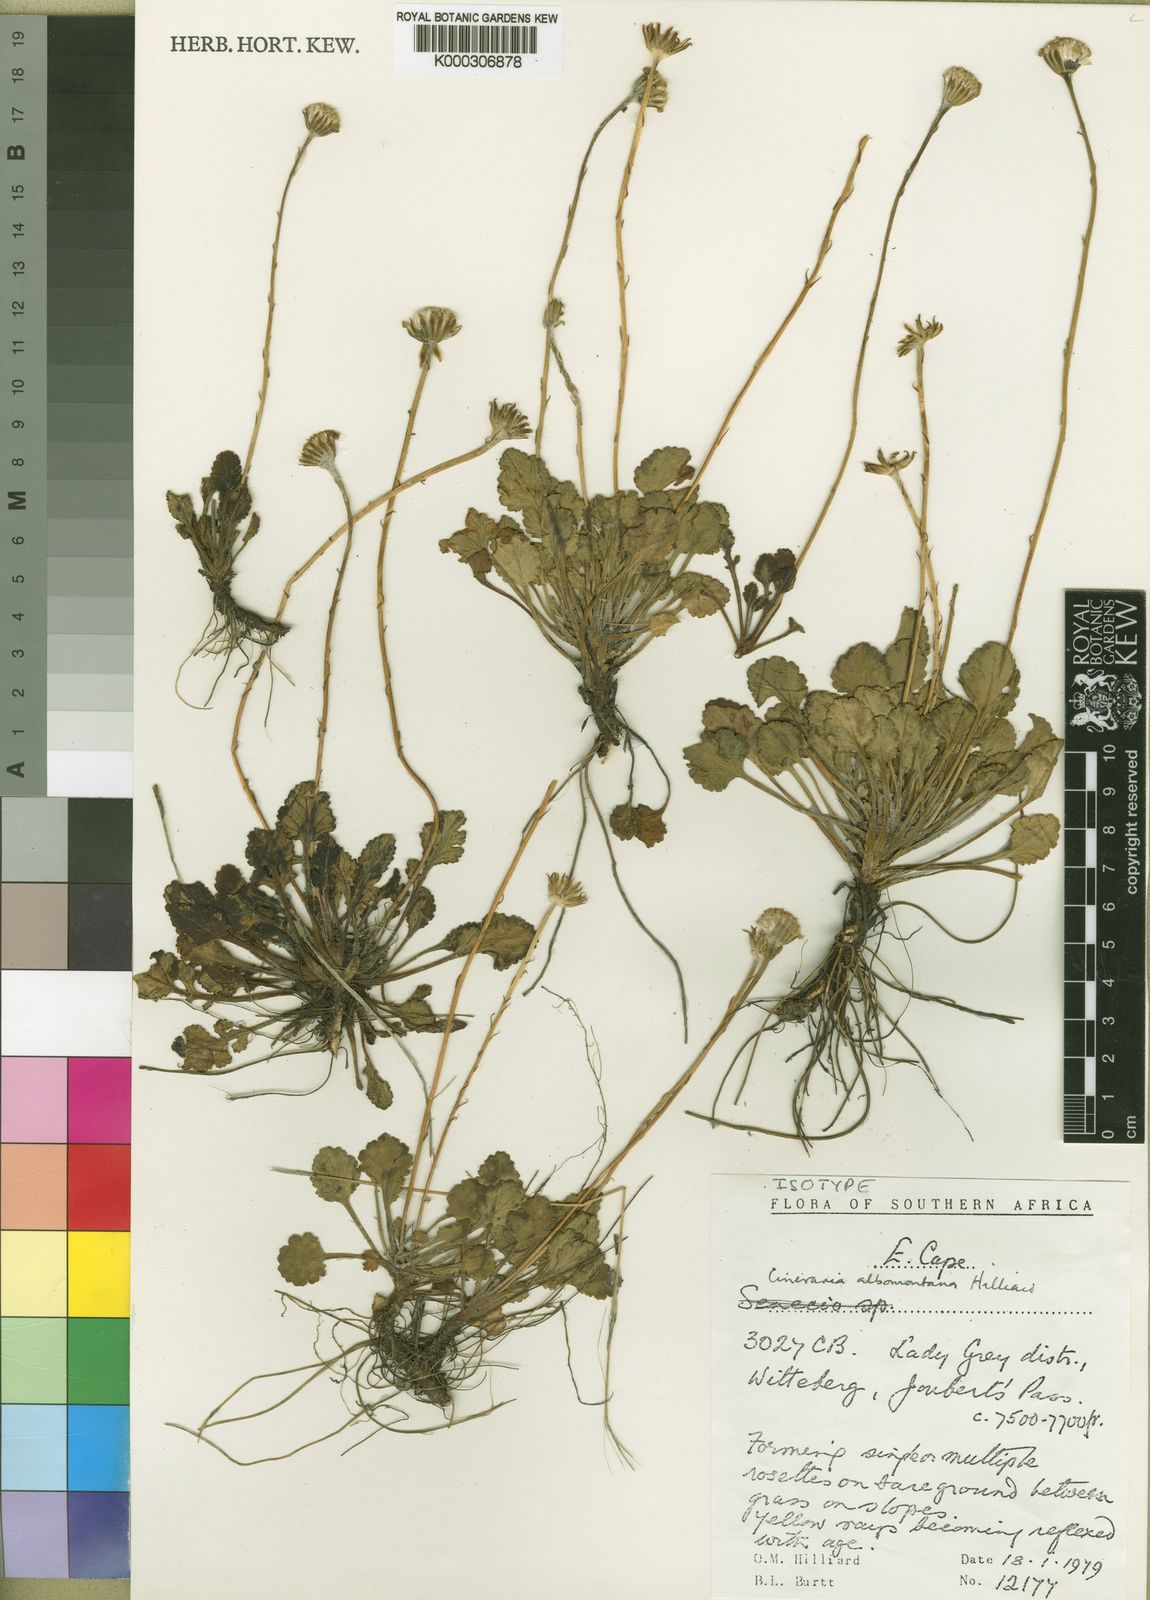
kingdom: Plantae
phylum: Tracheophyta
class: Magnoliopsida
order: Asterales
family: Asteraceae
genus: Cineraria
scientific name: Cineraria albomontana
